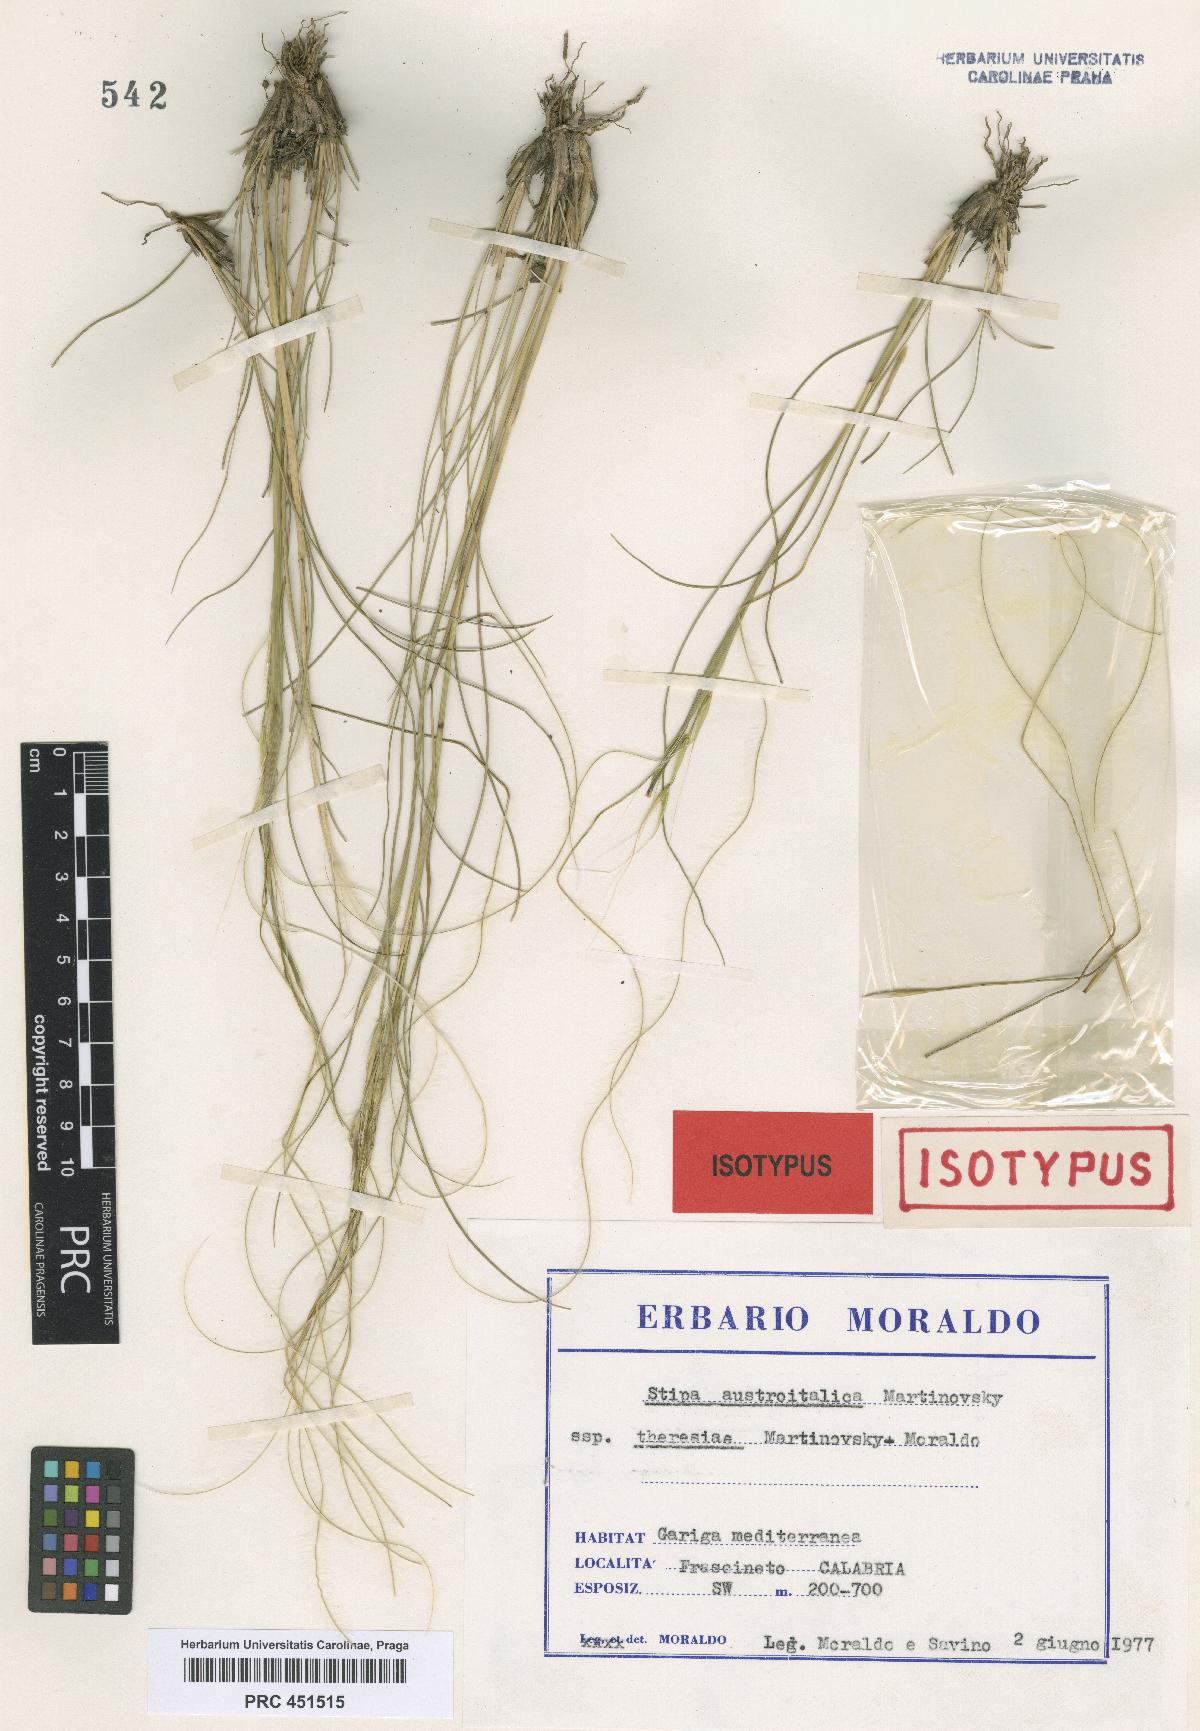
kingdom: Plantae
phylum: Tracheophyta
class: Liliopsida
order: Poales
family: Poaceae
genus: Stipa
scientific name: Stipa austroitalica
